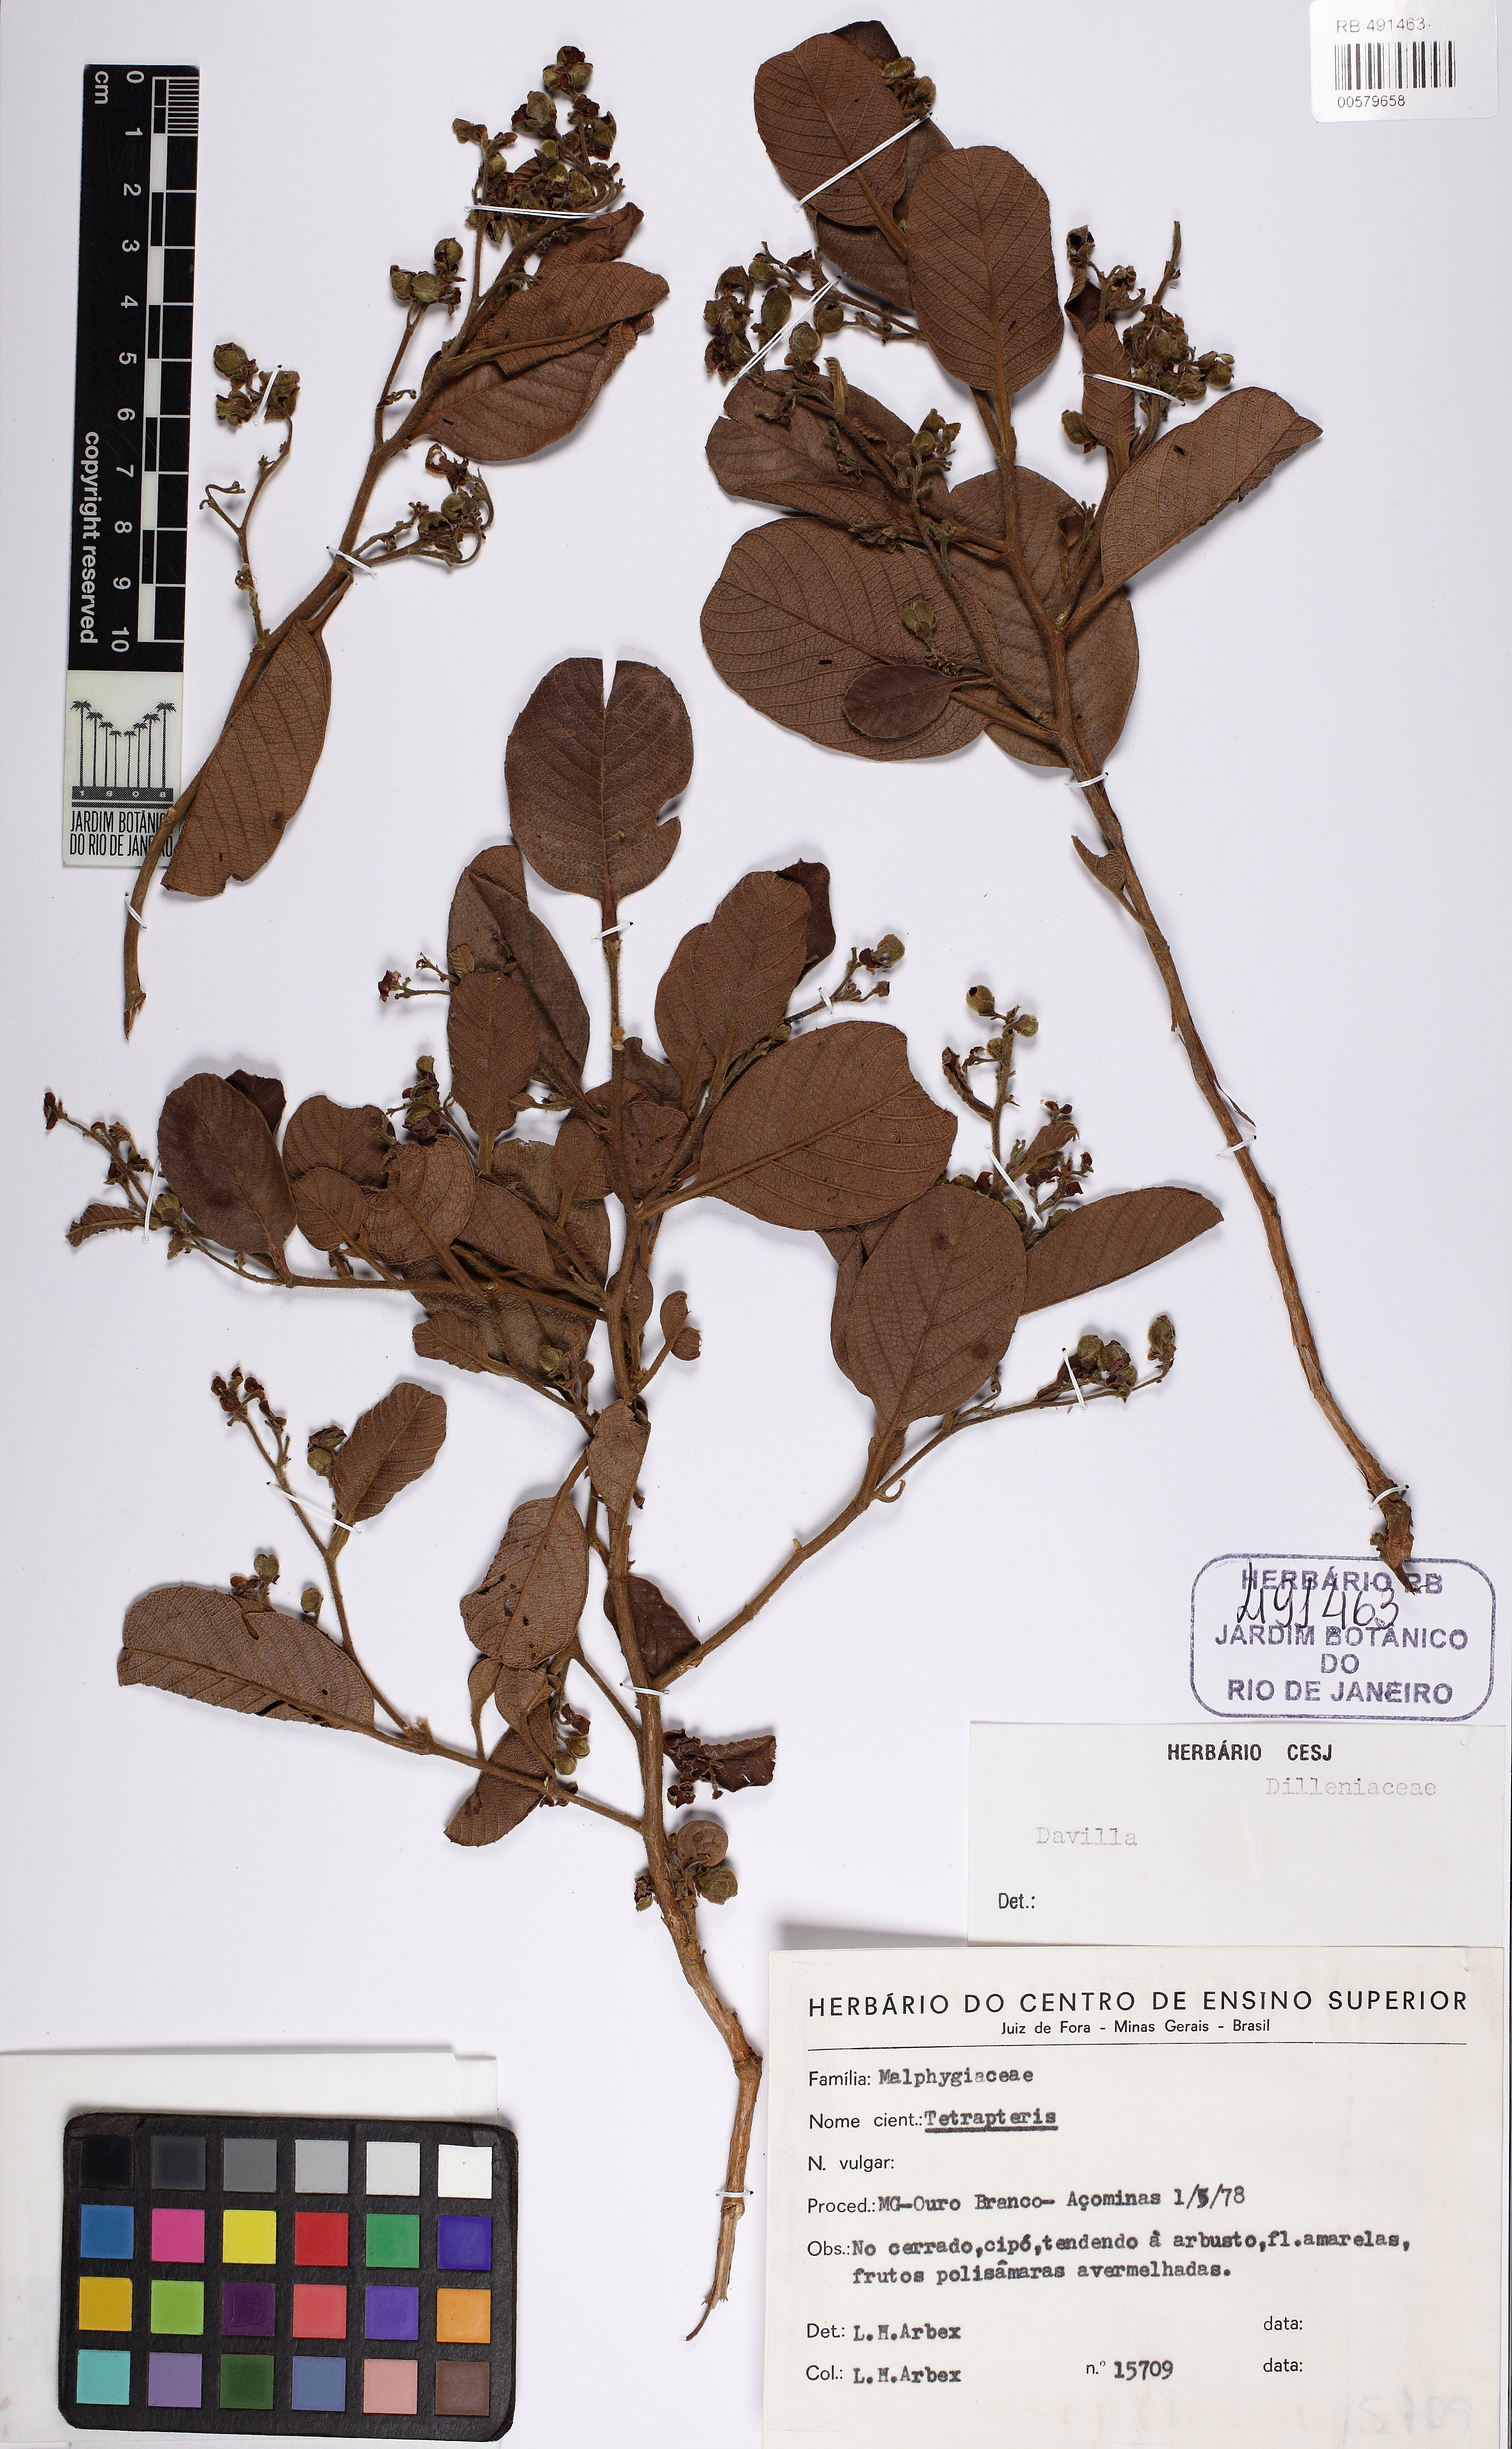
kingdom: Plantae
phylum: Tracheophyta
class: Magnoliopsida
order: Dilleniales
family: Dilleniaceae
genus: Davilla
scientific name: Davilla elliptica
